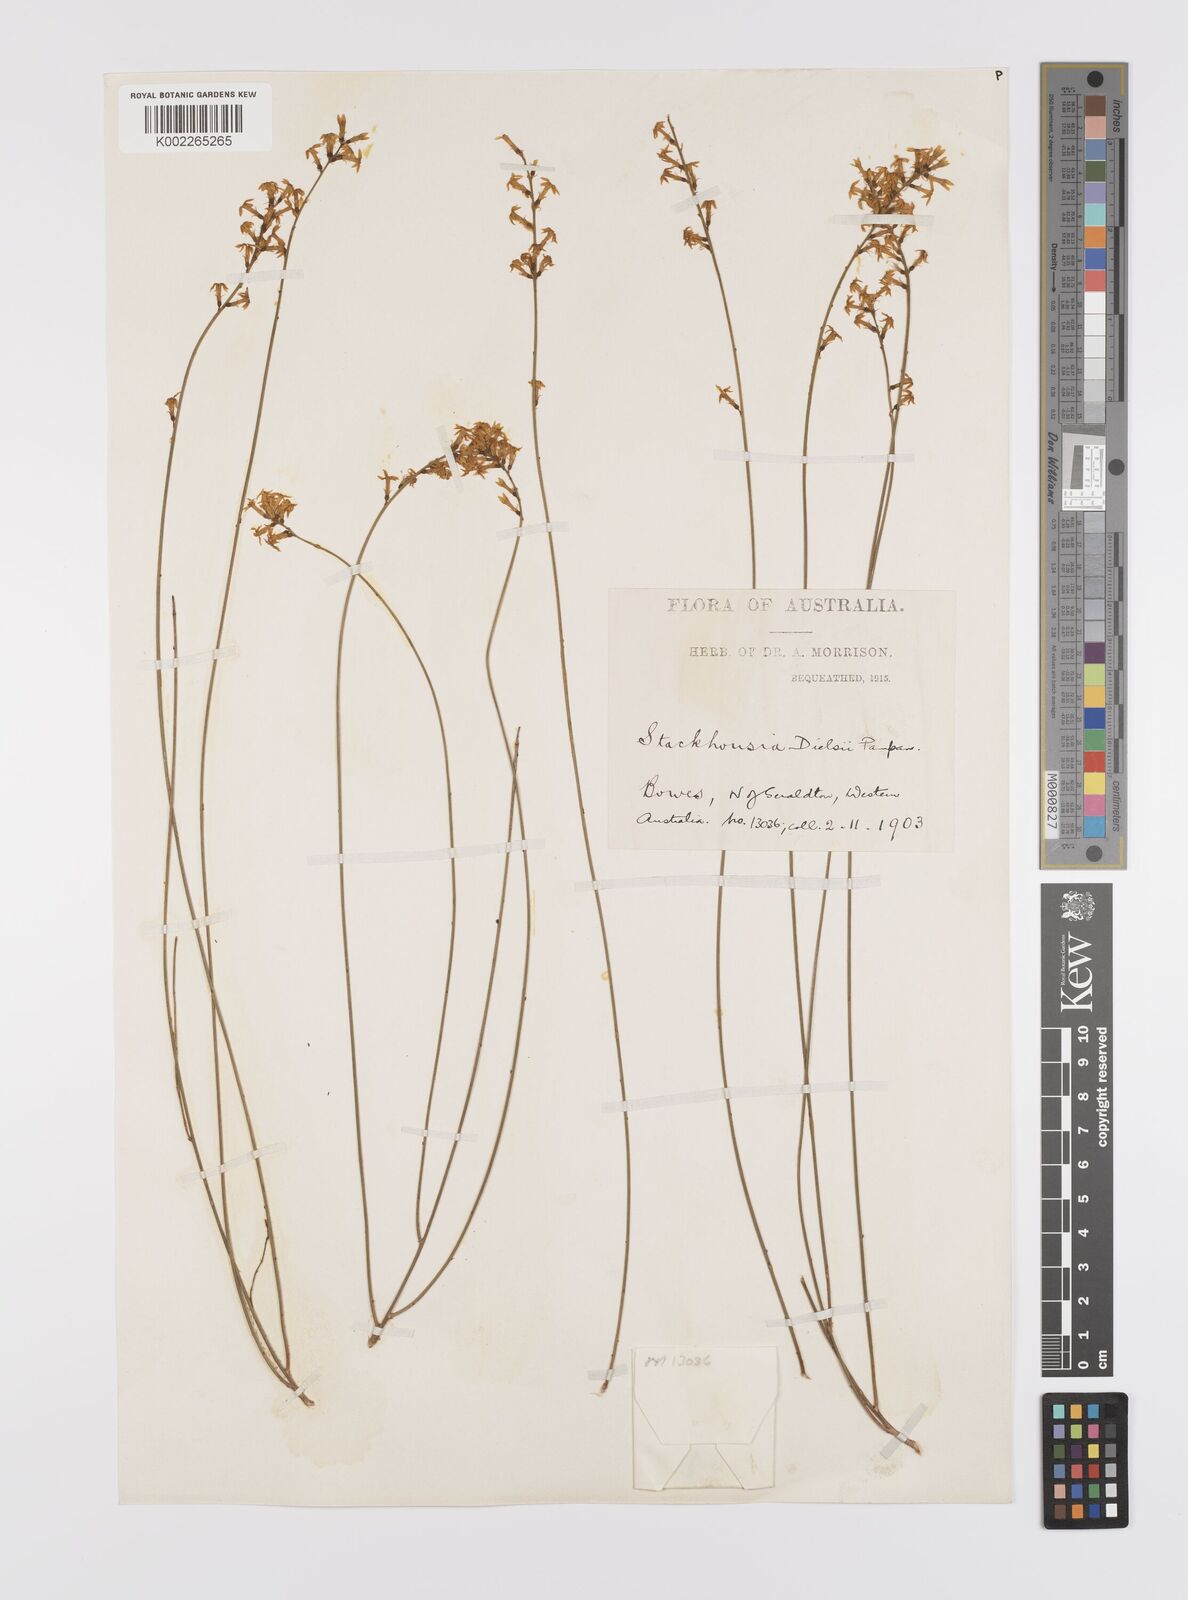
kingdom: Plantae
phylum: Tracheophyta
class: Magnoliopsida
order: Celastrales
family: Celastraceae
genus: Stackhousia
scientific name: Stackhousia dielsii
